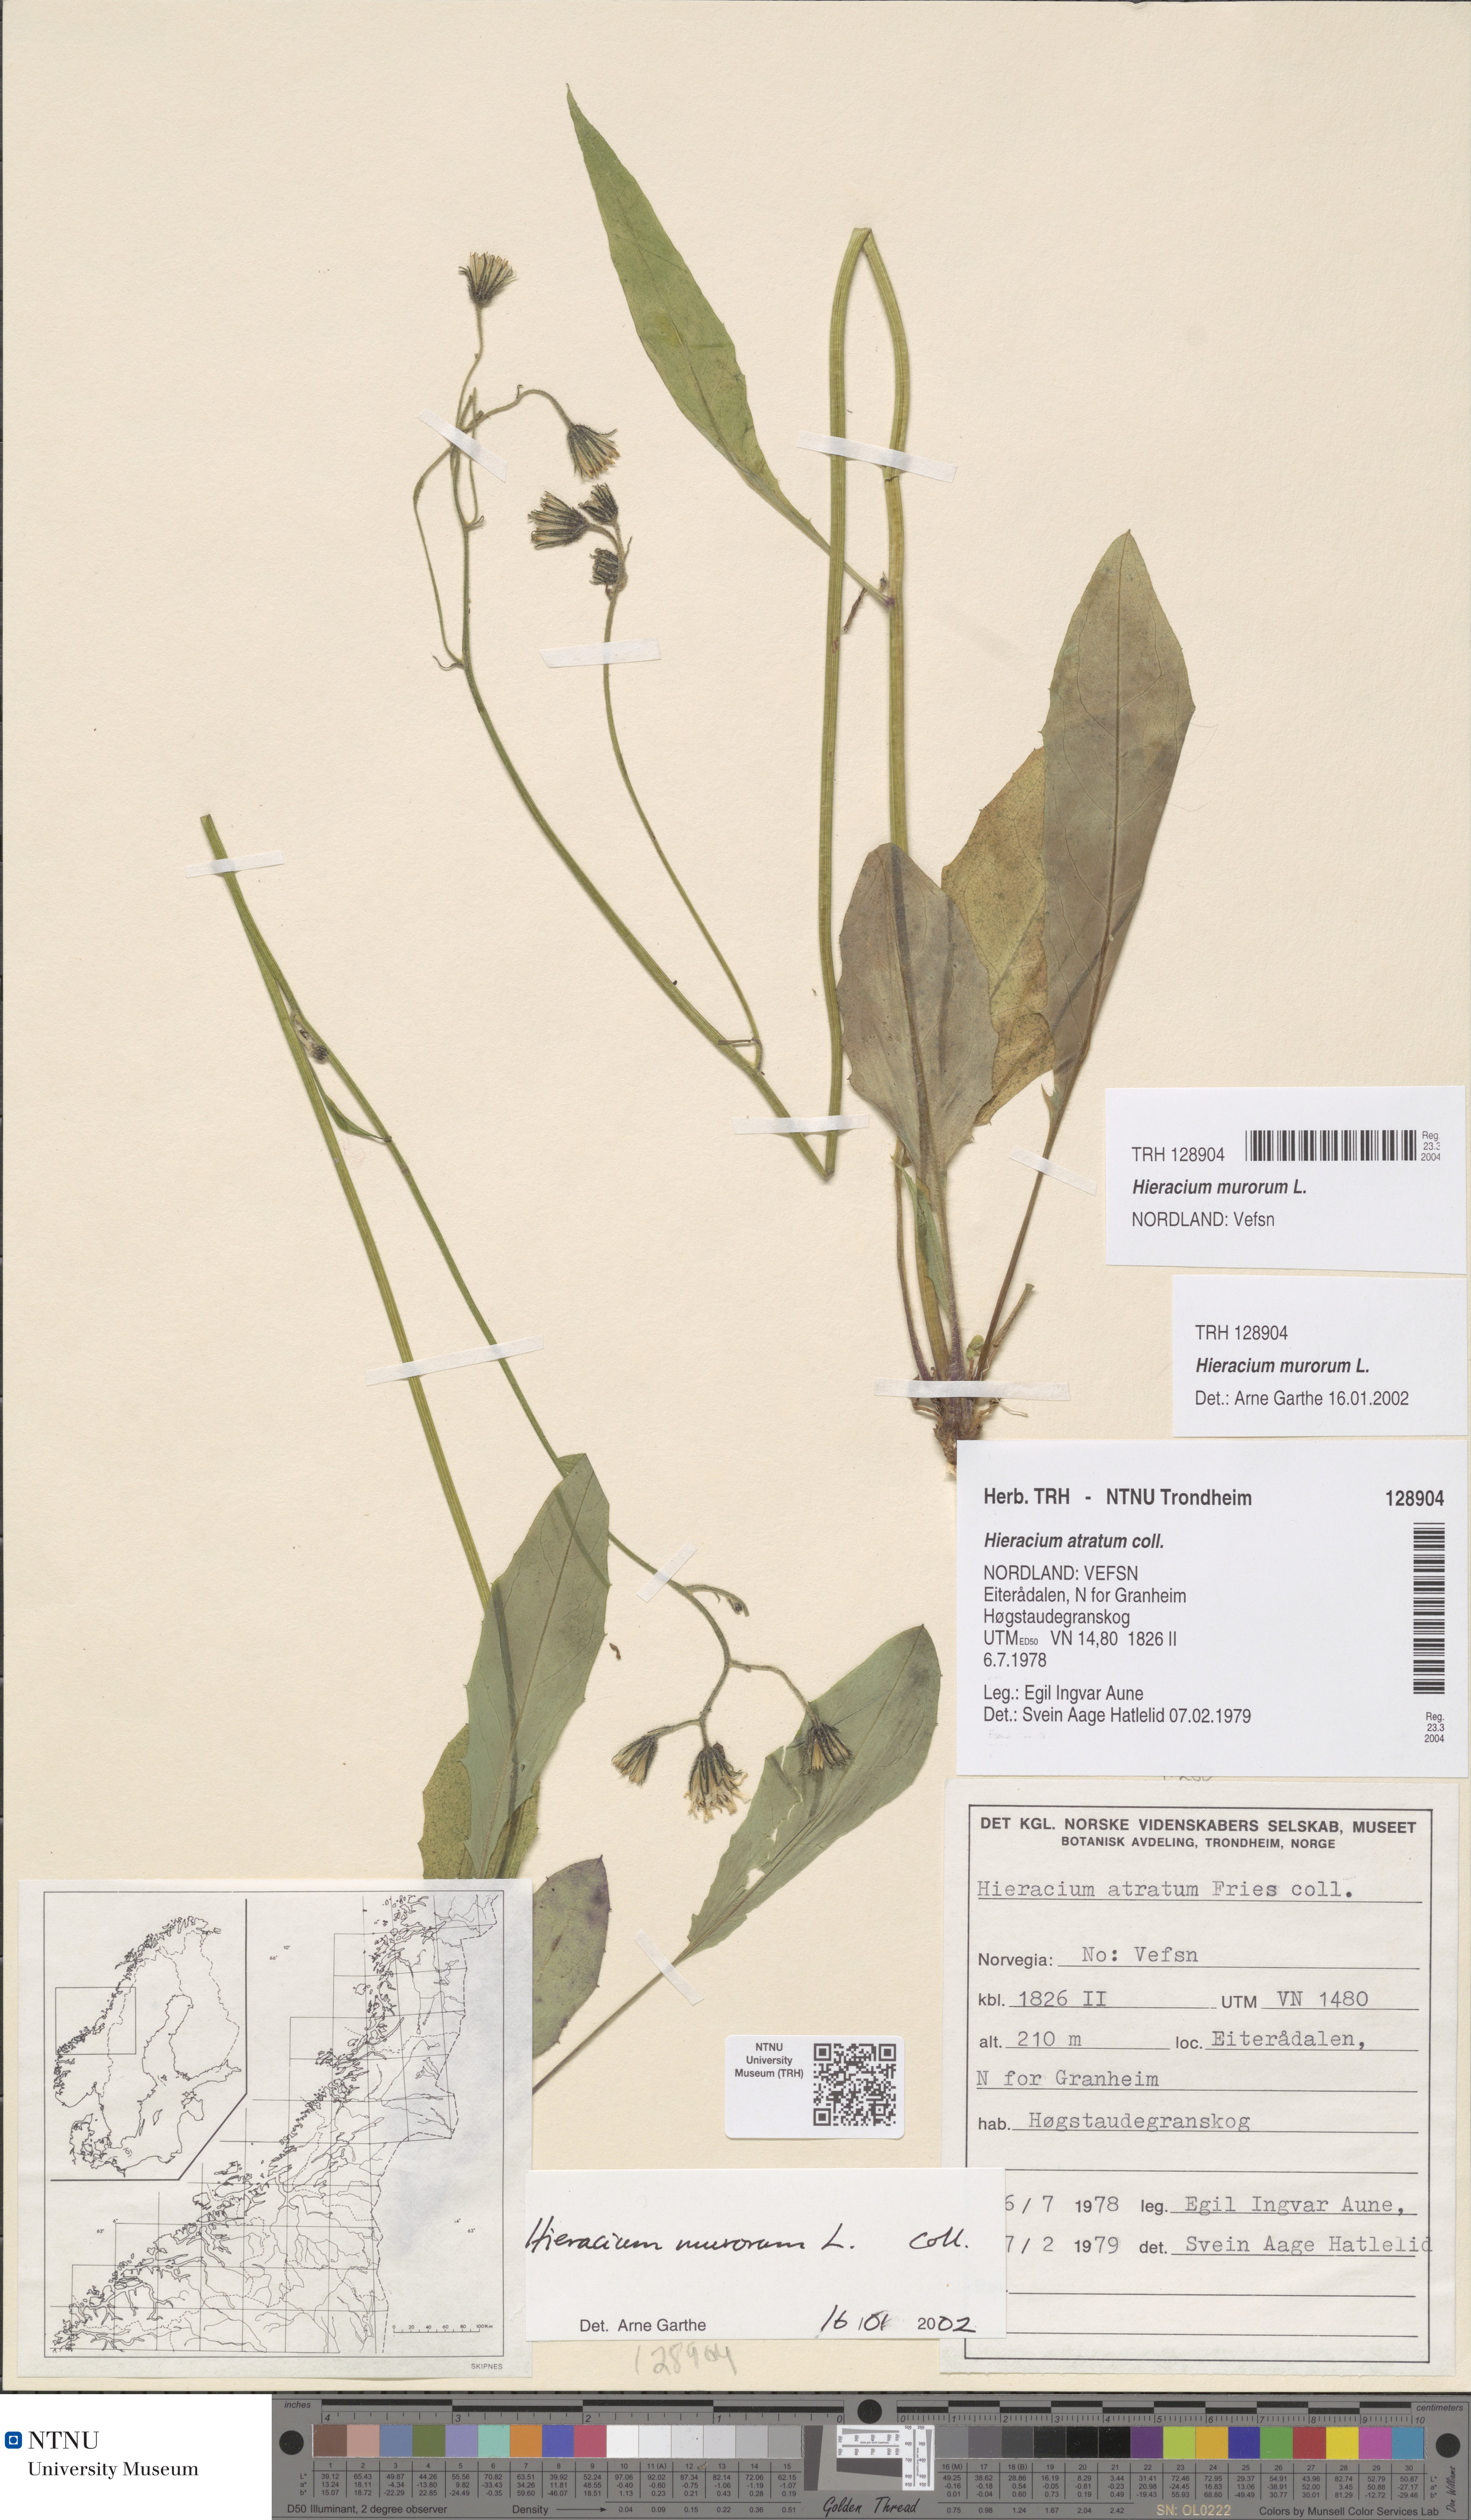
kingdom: Plantae
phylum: Tracheophyta
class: Magnoliopsida
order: Asterales
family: Asteraceae
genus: Hieracium
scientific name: Hieracium murorum
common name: Wall hawkweed
